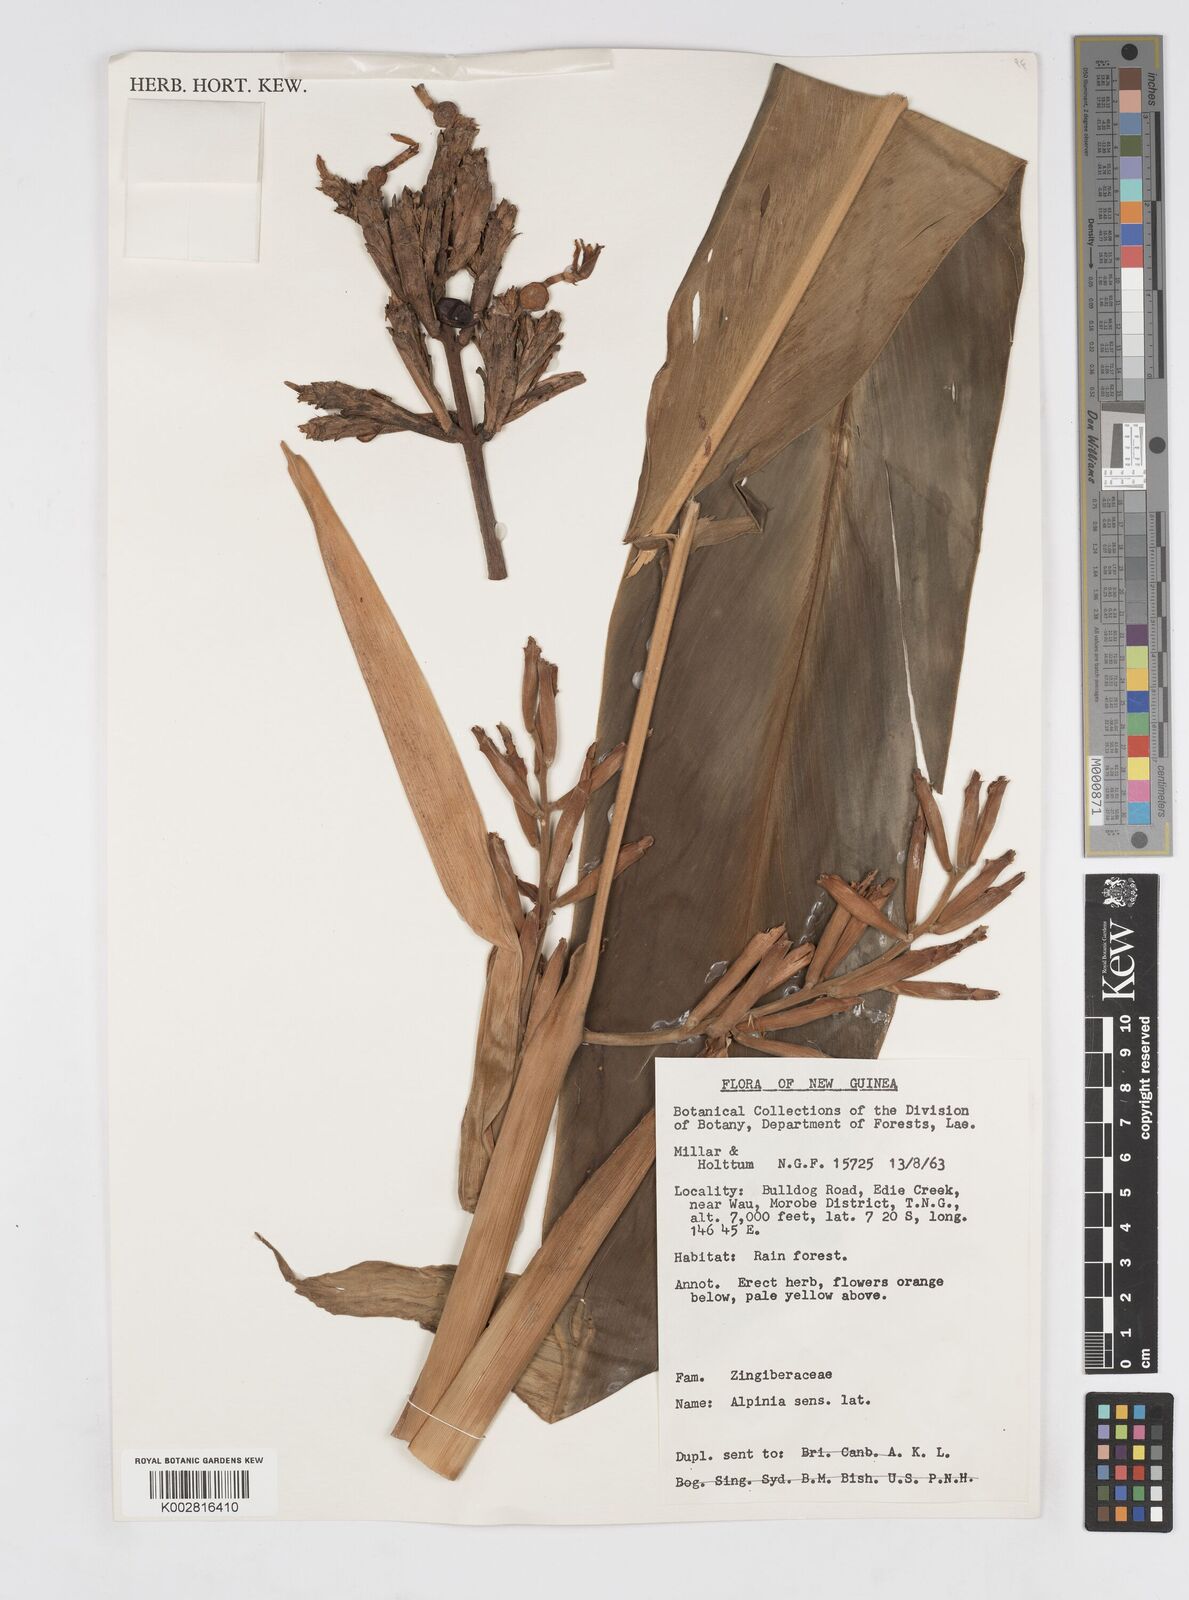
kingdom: Plantae
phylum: Tracheophyta
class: Liliopsida
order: Zingiberales
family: Zingiberaceae
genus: Alpinia
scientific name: Alpinia stenobracteolata
